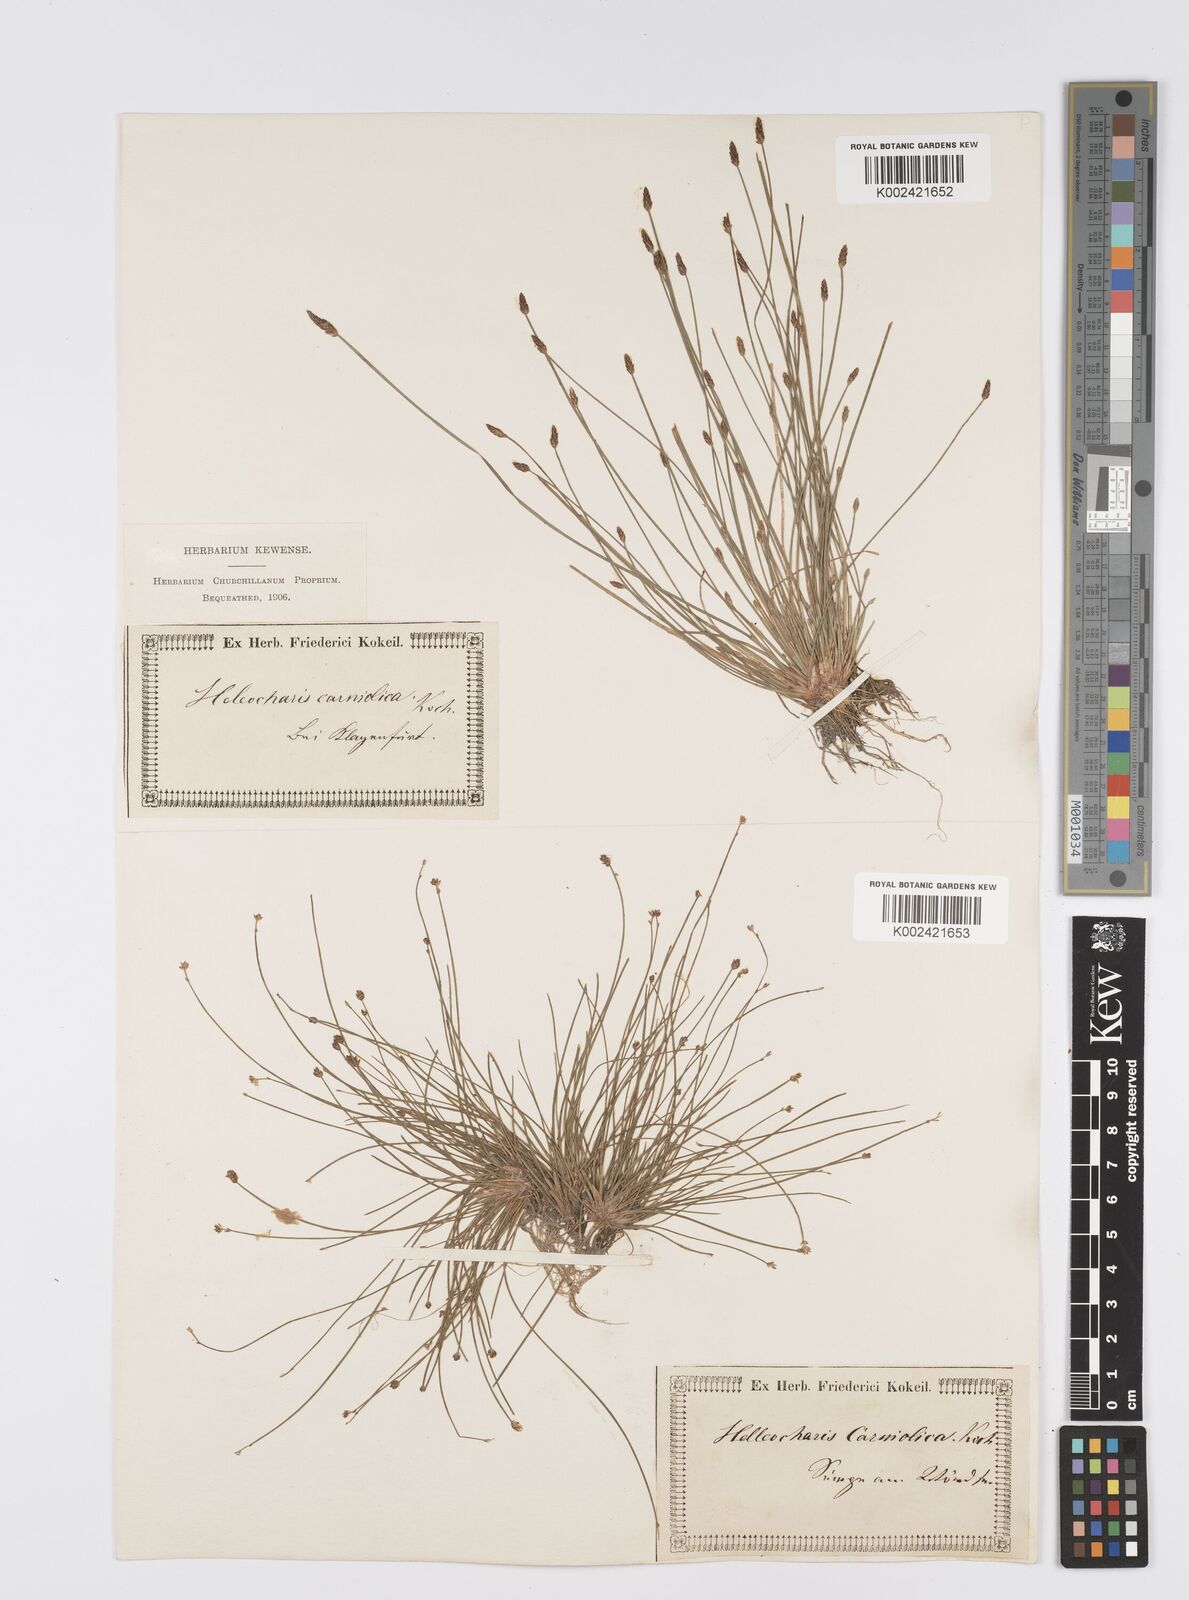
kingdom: Plantae
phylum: Tracheophyta
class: Liliopsida
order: Poales
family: Cyperaceae
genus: Eleocharis
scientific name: Eleocharis carniolica
